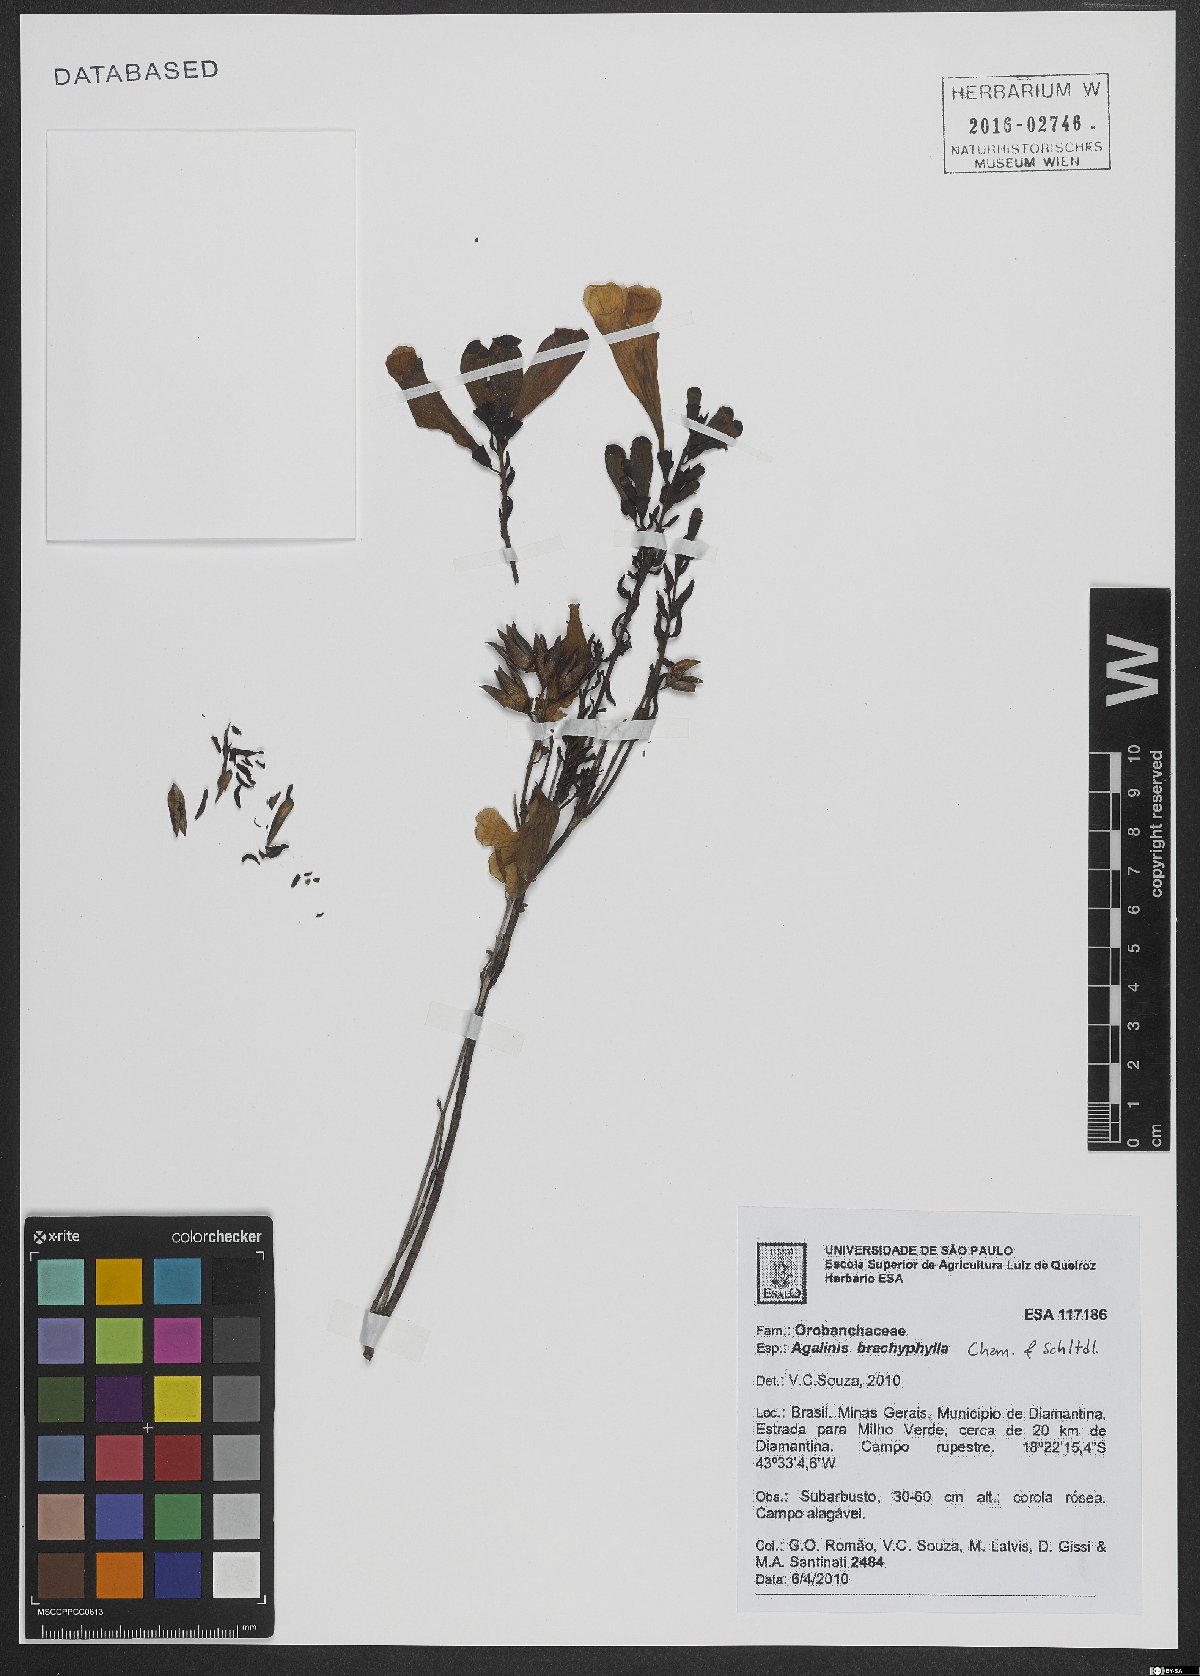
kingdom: Plantae
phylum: Tracheophyta
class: Magnoliopsida
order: Lamiales
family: Scrophulariaceae
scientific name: Scrophulariaceae
